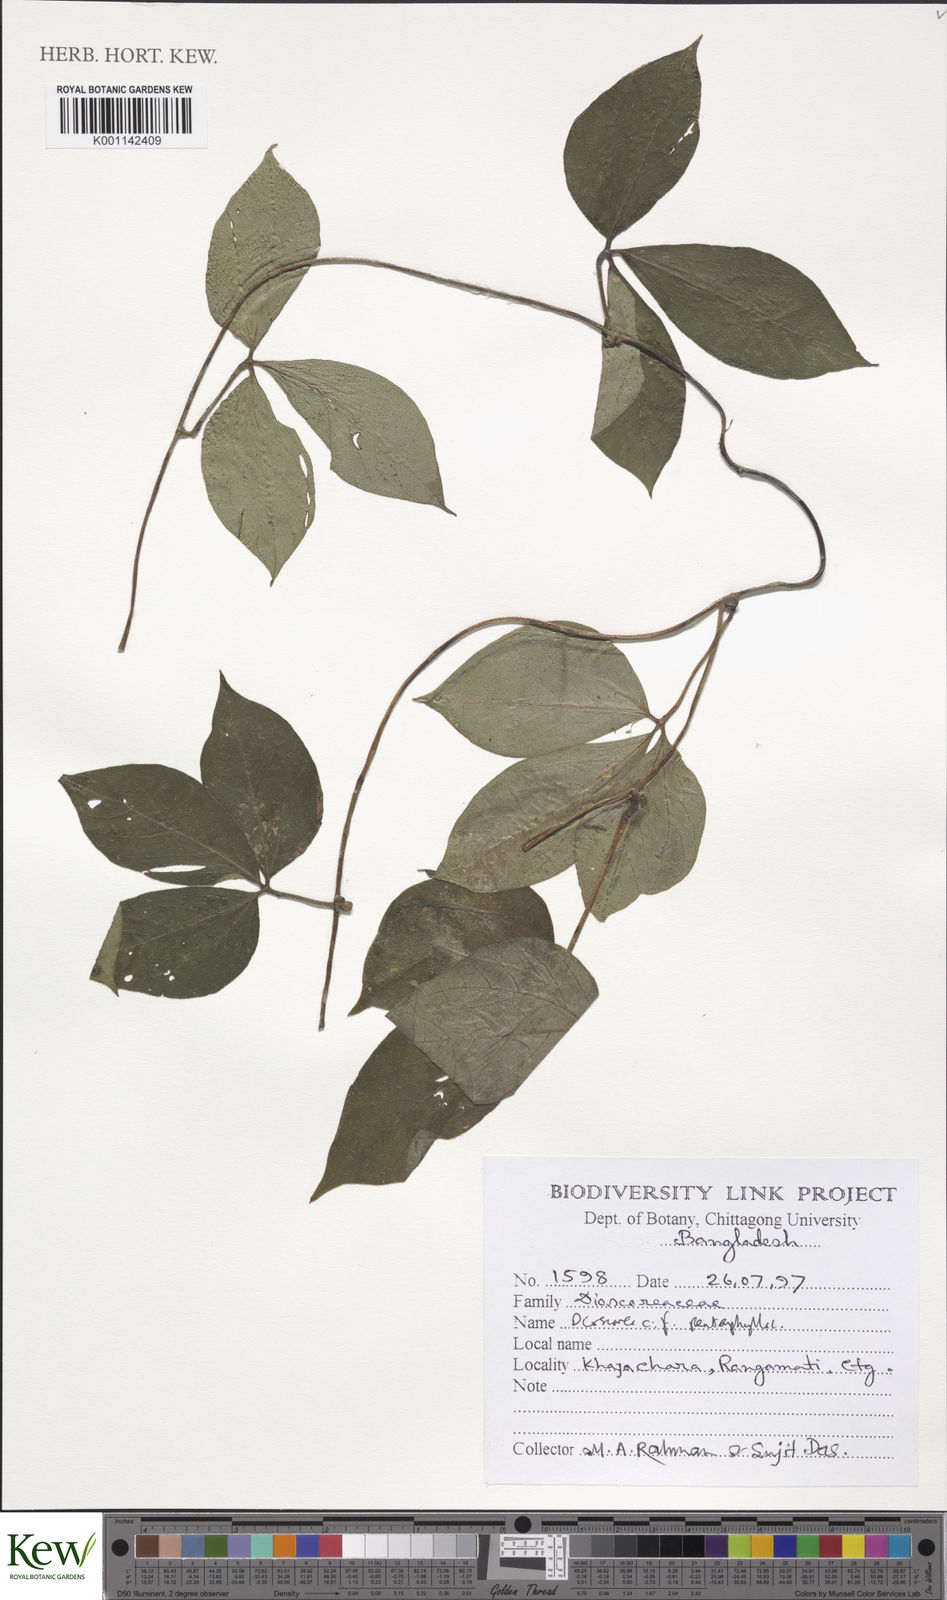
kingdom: Plantae
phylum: Tracheophyta
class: Liliopsida
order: Dioscoreales
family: Dioscoreaceae
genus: Dioscorea
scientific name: Dioscorea pentaphylla
